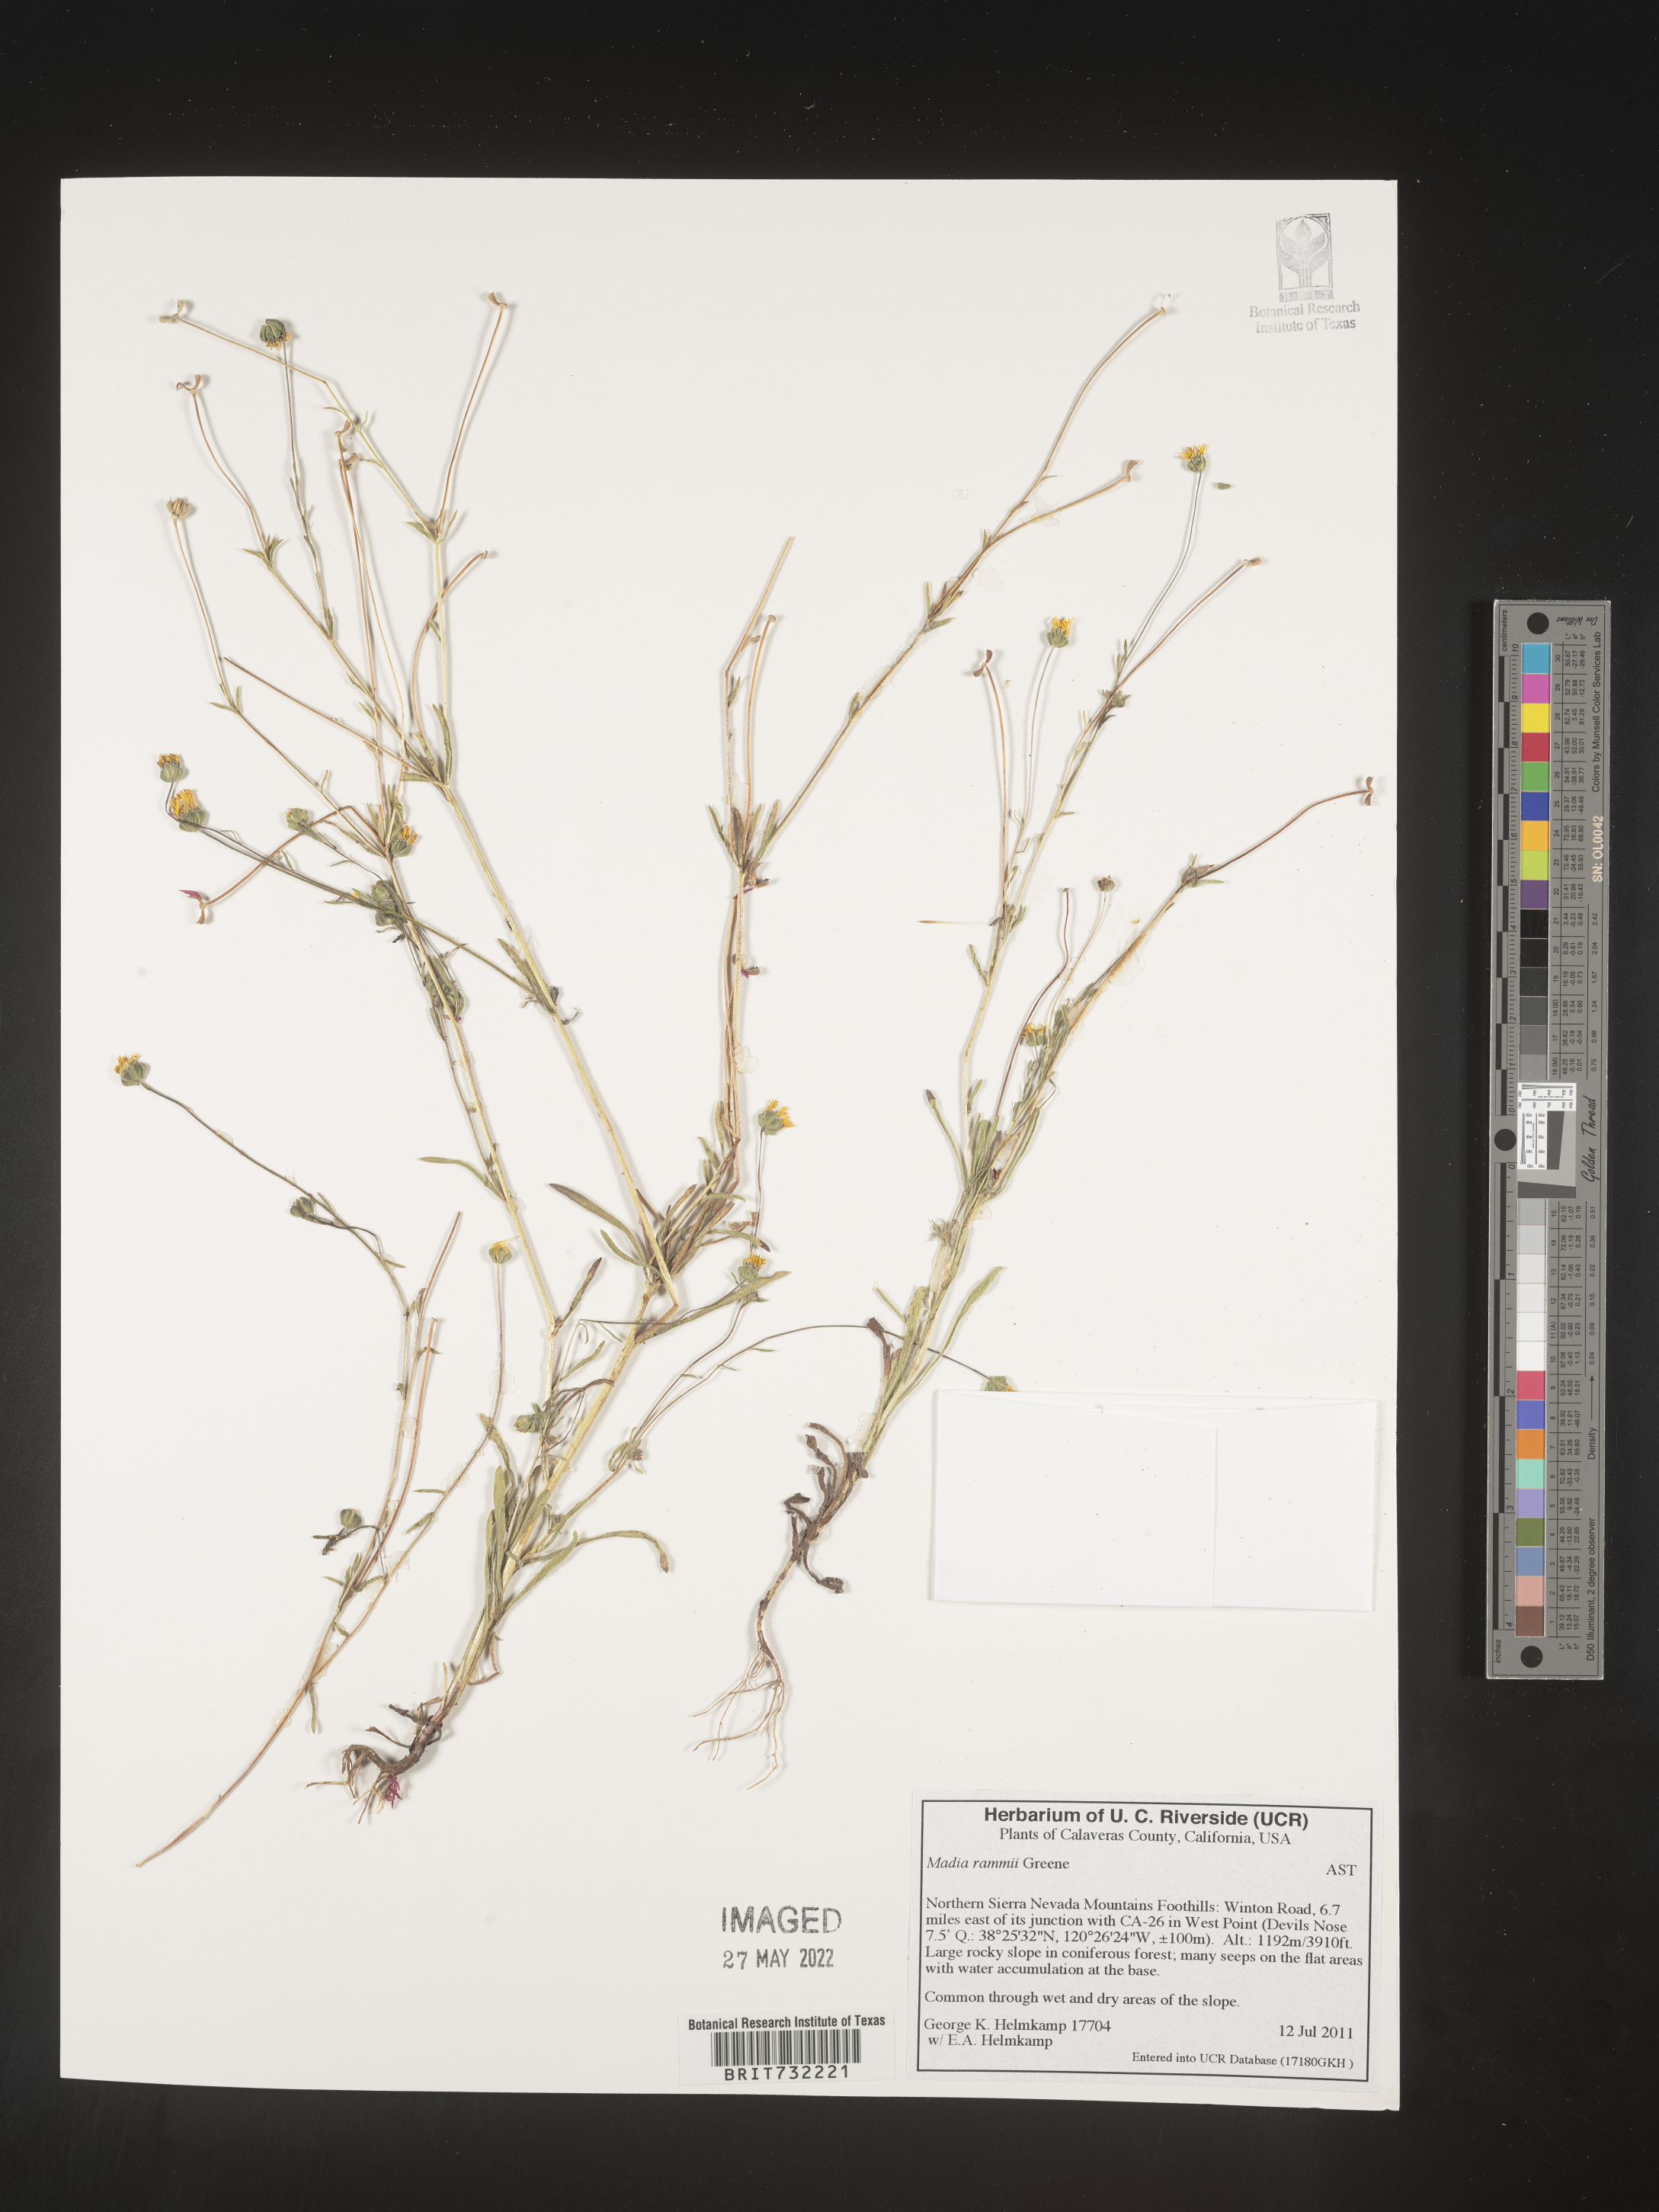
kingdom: Plantae
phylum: Tracheophyta
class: Magnoliopsida
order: Asterales
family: Asteraceae
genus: Madia
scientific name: Madia
